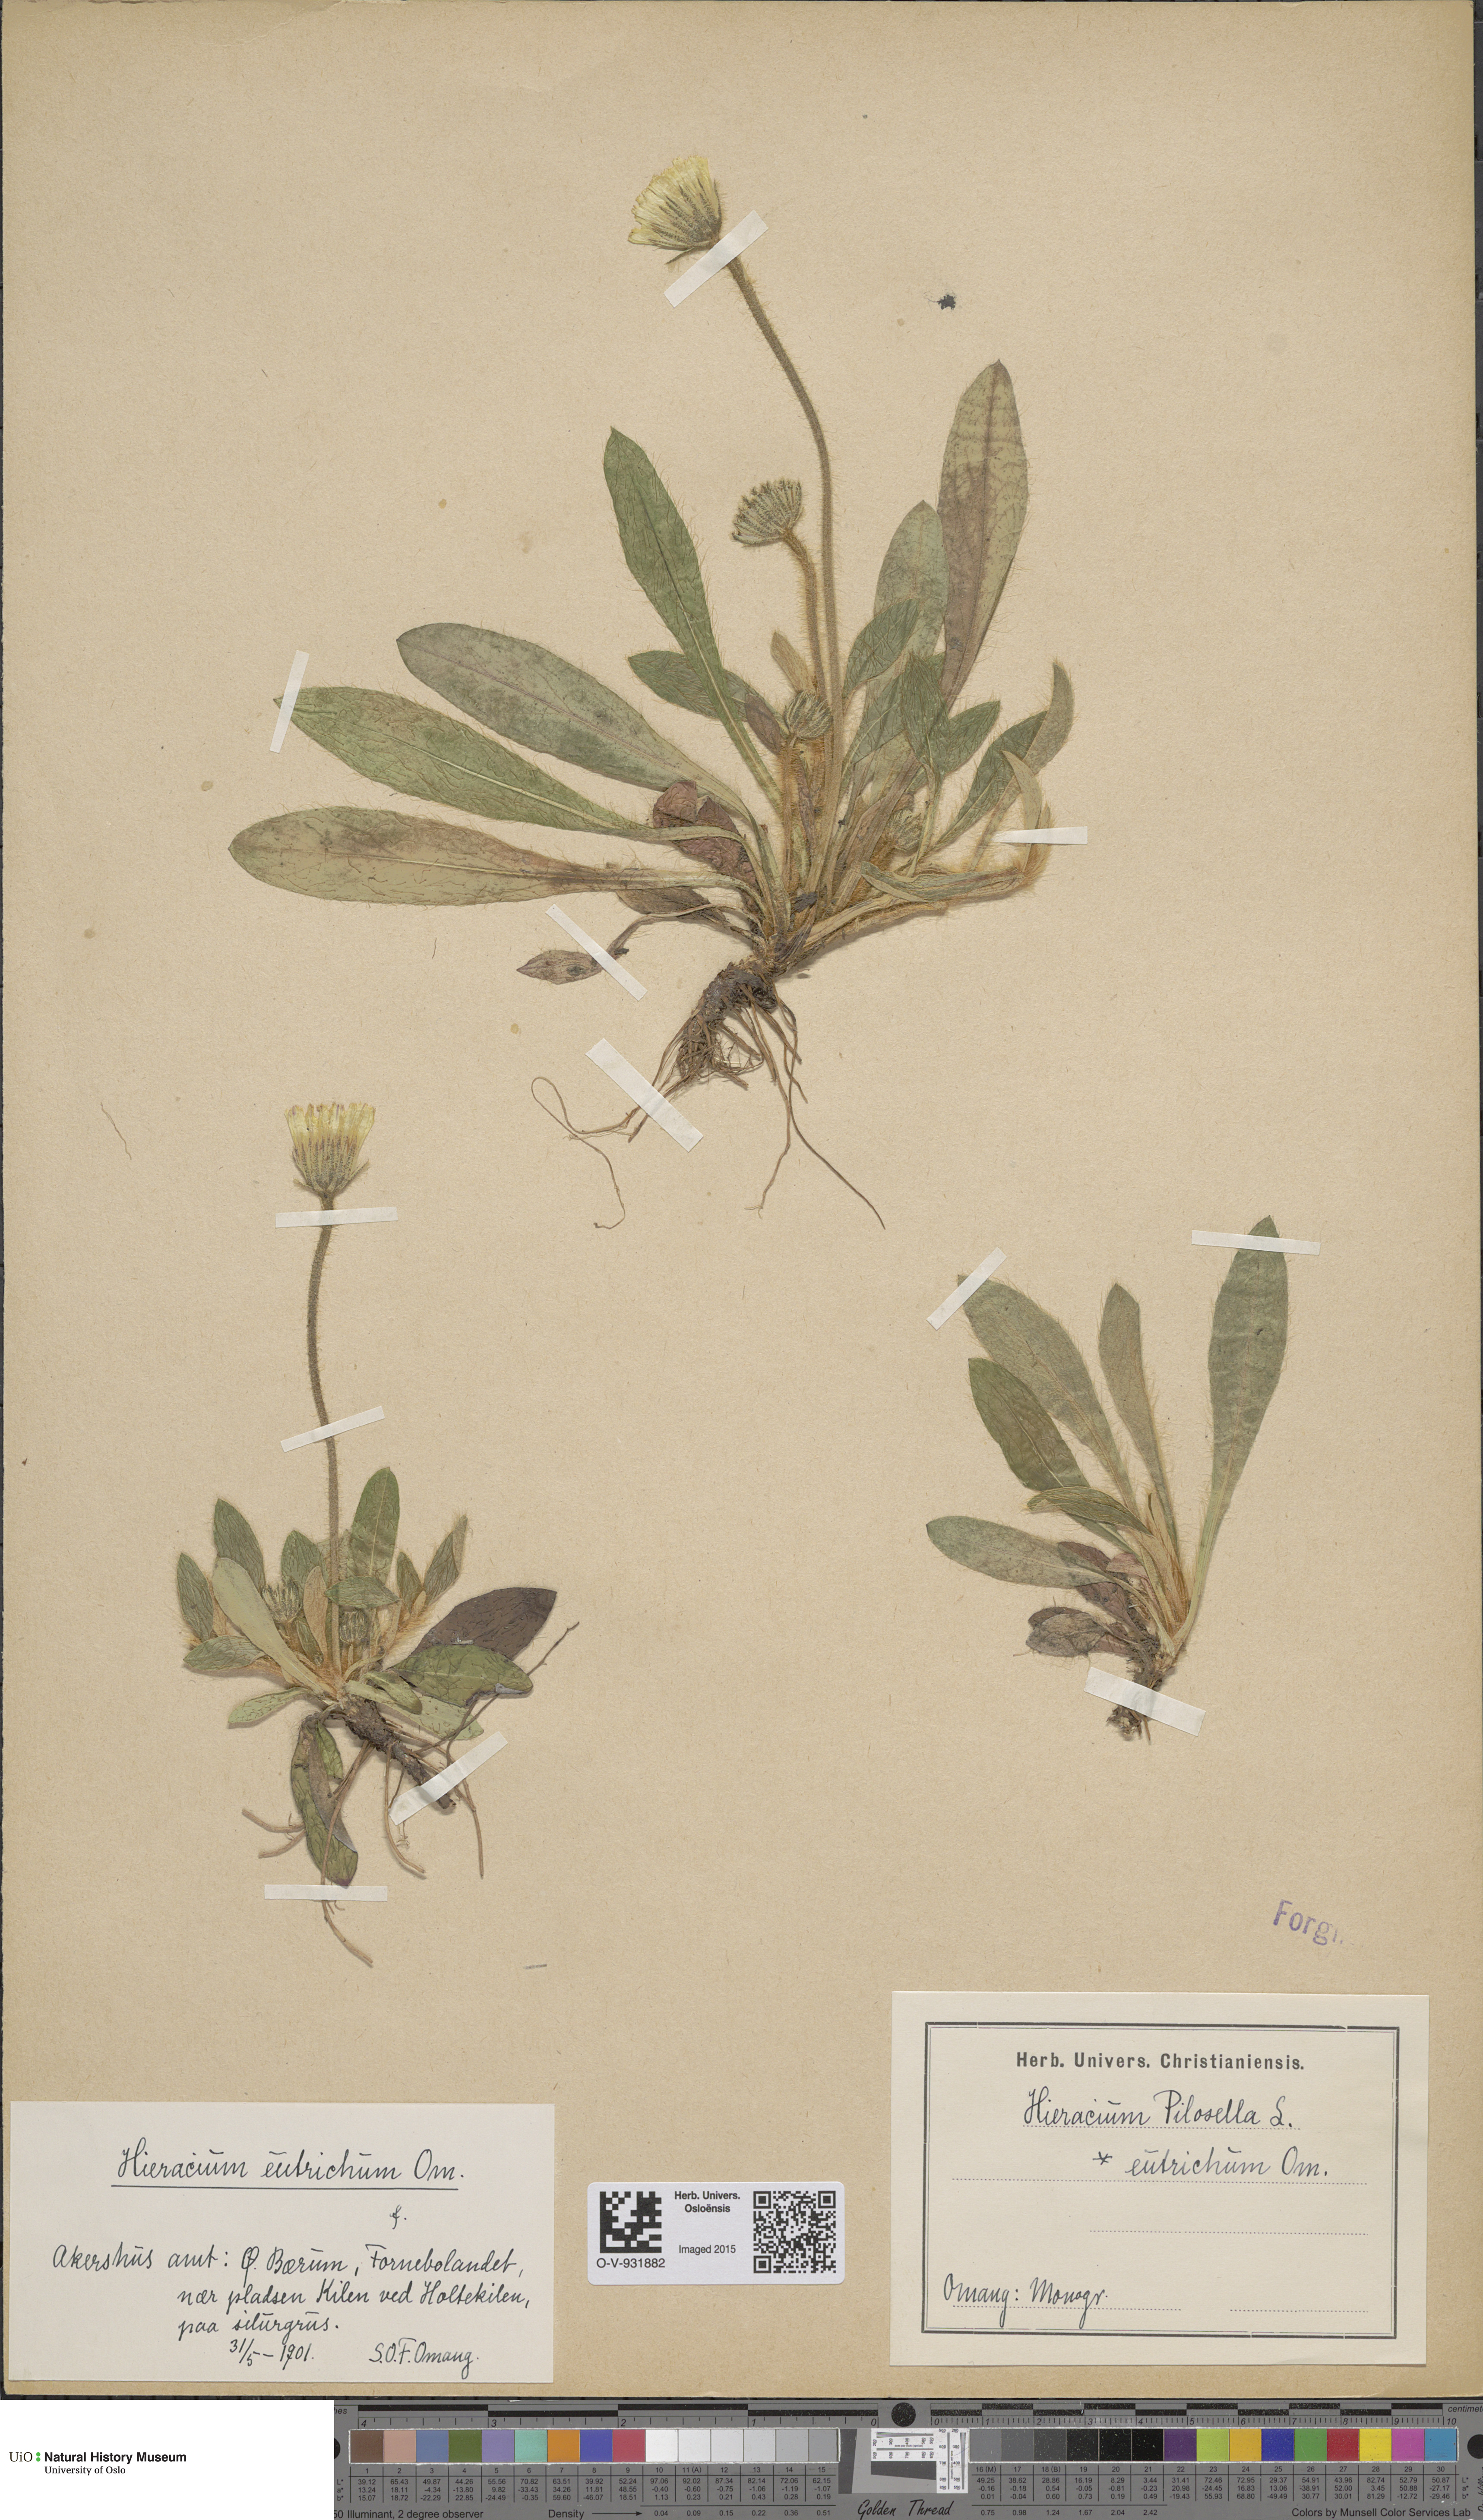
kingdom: Plantae
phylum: Tracheophyta
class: Magnoliopsida
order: Asterales
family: Asteraceae
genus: Pilosella
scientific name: Pilosella officinarum
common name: Mouse-ear hawkweed
